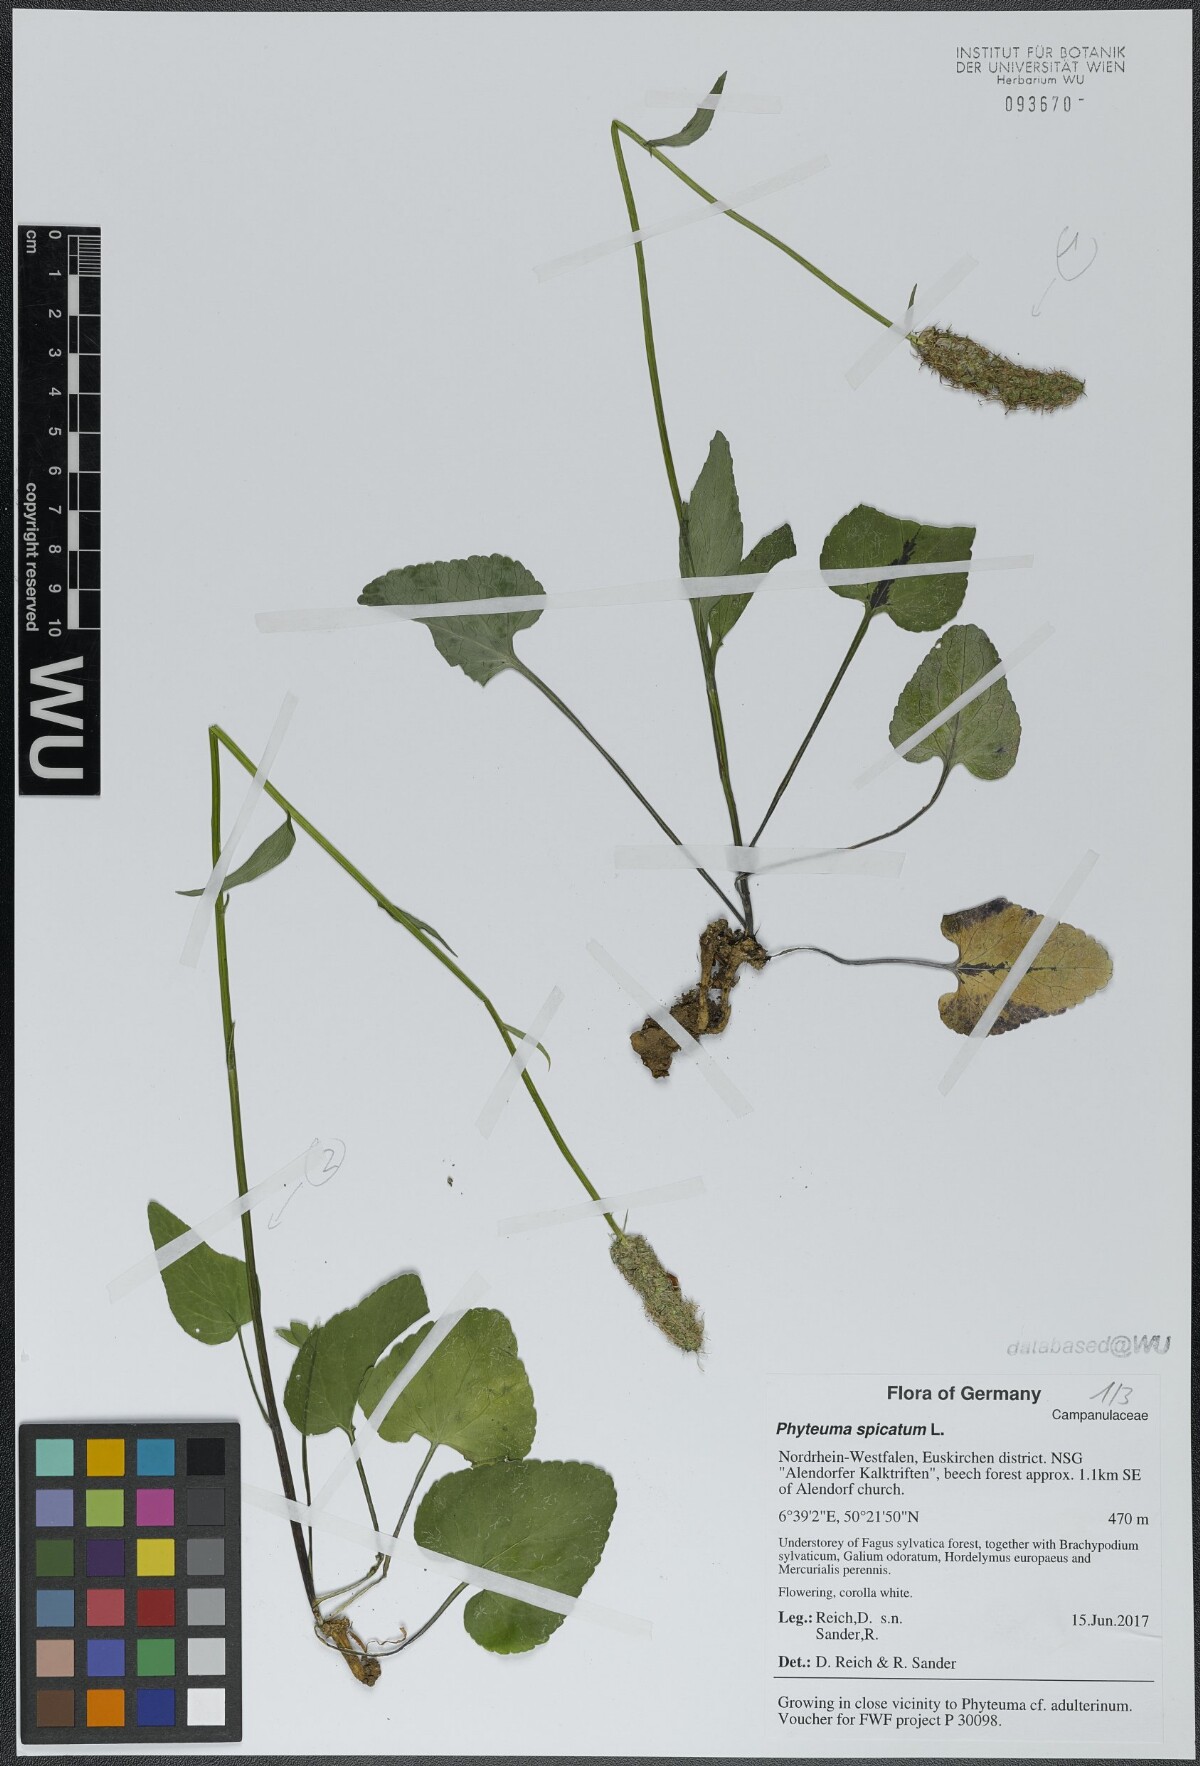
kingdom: Plantae
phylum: Tracheophyta
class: Magnoliopsida
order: Asterales
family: Campanulaceae
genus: Phyteuma
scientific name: Phyteuma spicatum
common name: Spiked rampion
